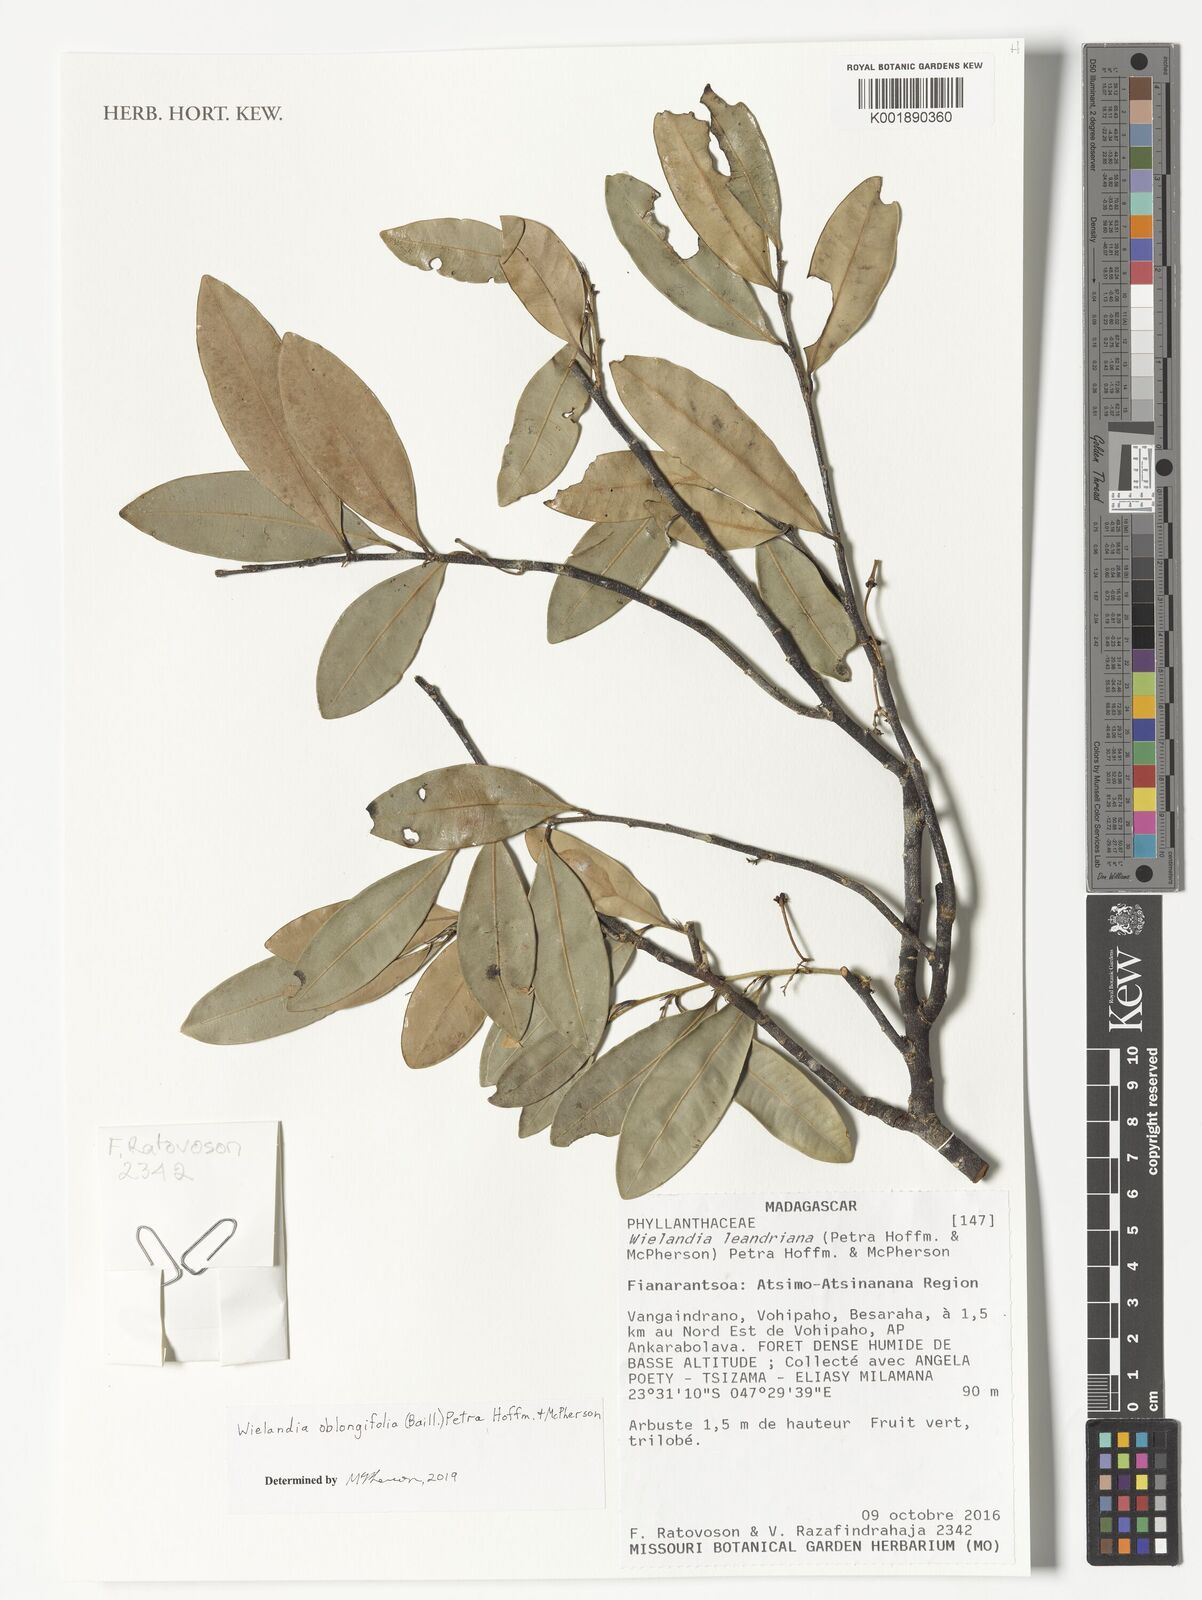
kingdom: Plantae
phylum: Tracheophyta
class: Magnoliopsida
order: Malpighiales
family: Phyllanthaceae
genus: Wielandia
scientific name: Wielandia oblongifolia
